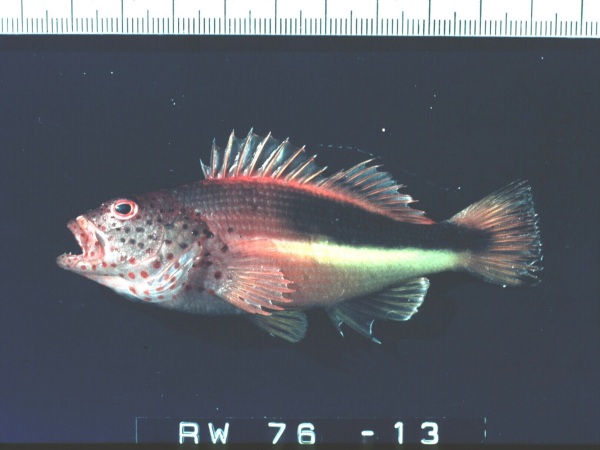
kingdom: Animalia
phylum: Chordata
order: Perciformes
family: Cirrhitidae
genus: Paracirrhites
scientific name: Paracirrhites forsteri
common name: Freckled hawkfish
